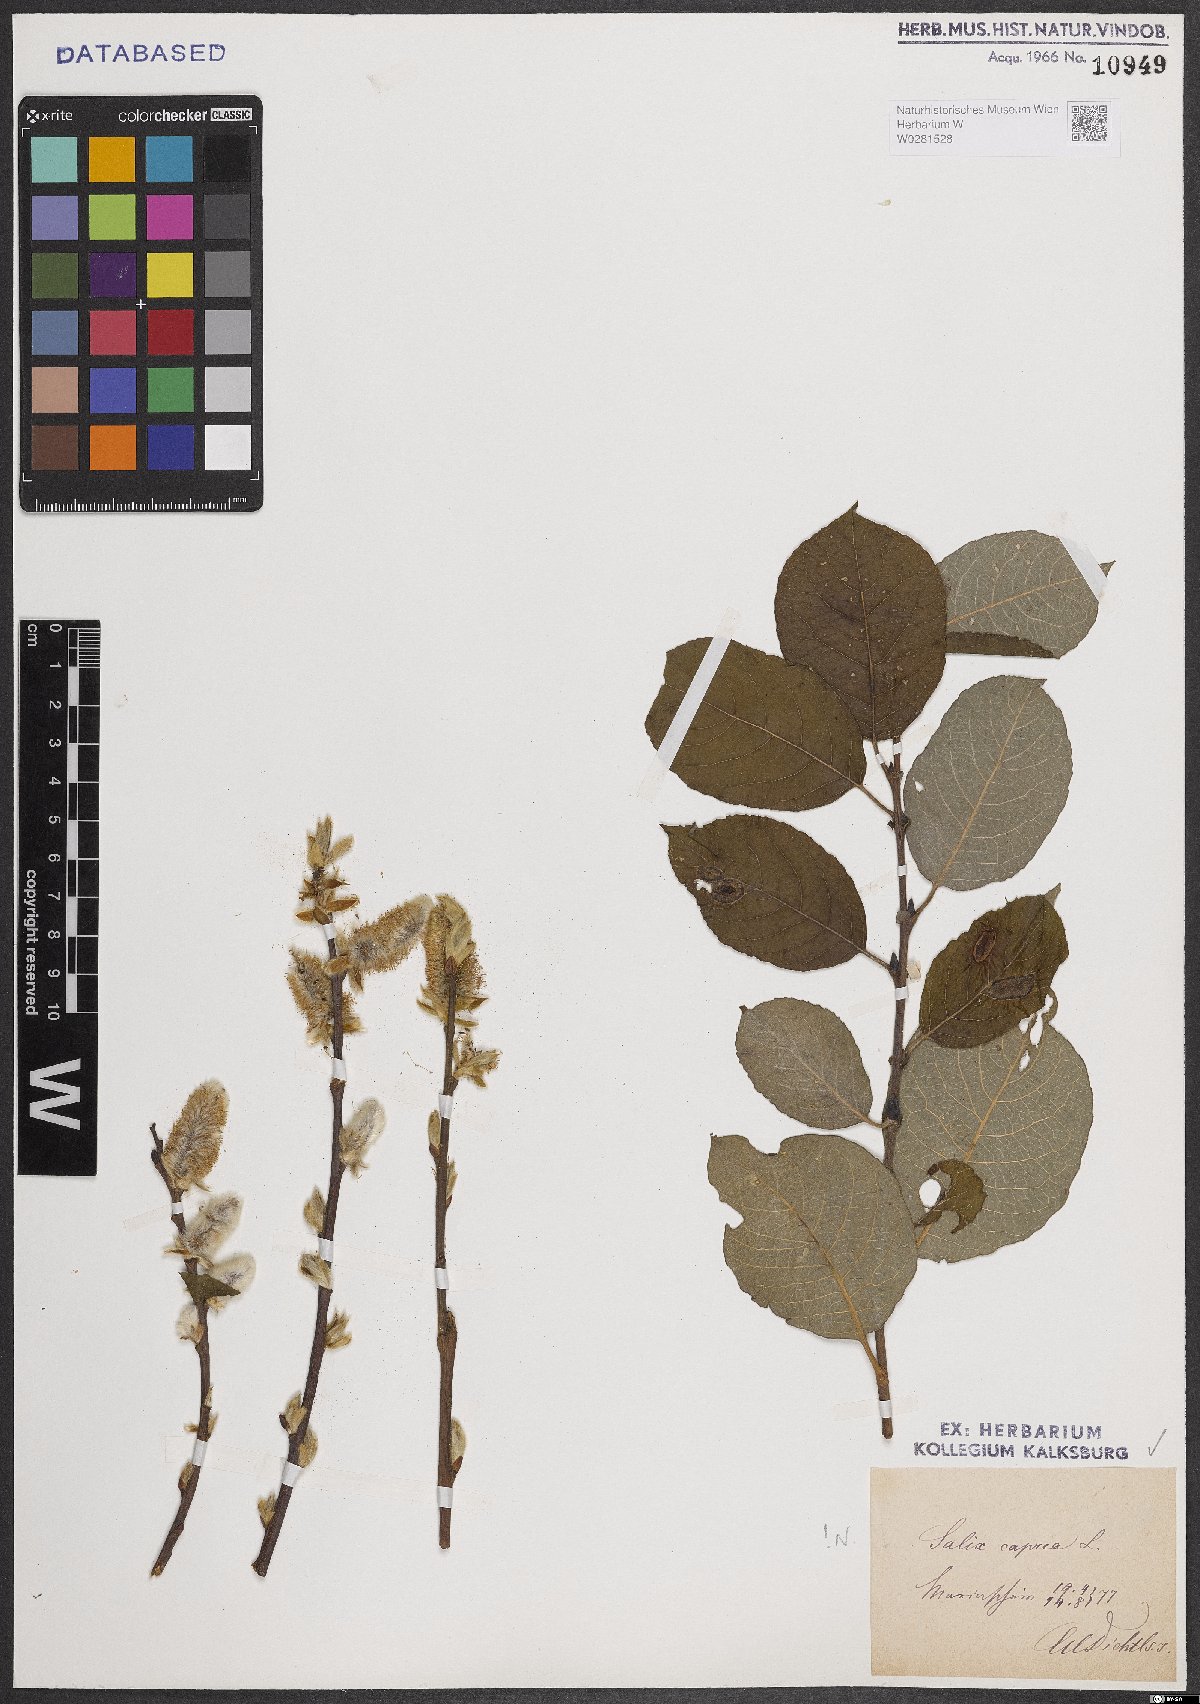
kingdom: Plantae
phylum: Tracheophyta
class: Magnoliopsida
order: Malpighiales
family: Salicaceae
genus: Salix
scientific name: Salix caprea
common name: Goat willow
